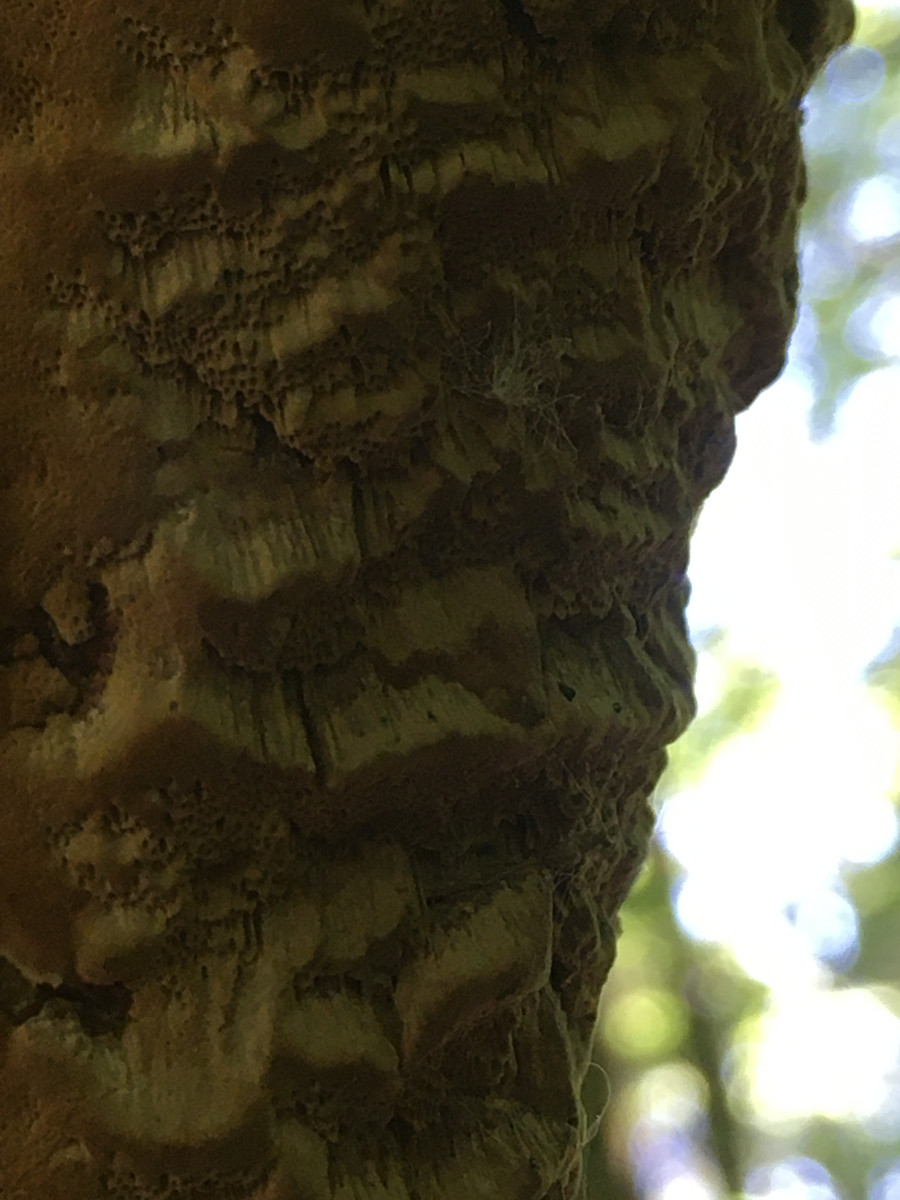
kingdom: Fungi
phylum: Basidiomycota
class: Agaricomycetes
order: Hymenochaetales
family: Hymenochaetaceae
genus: Fuscoporia
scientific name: Fuscoporia ferrea
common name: skorpe-ildporesvamp
